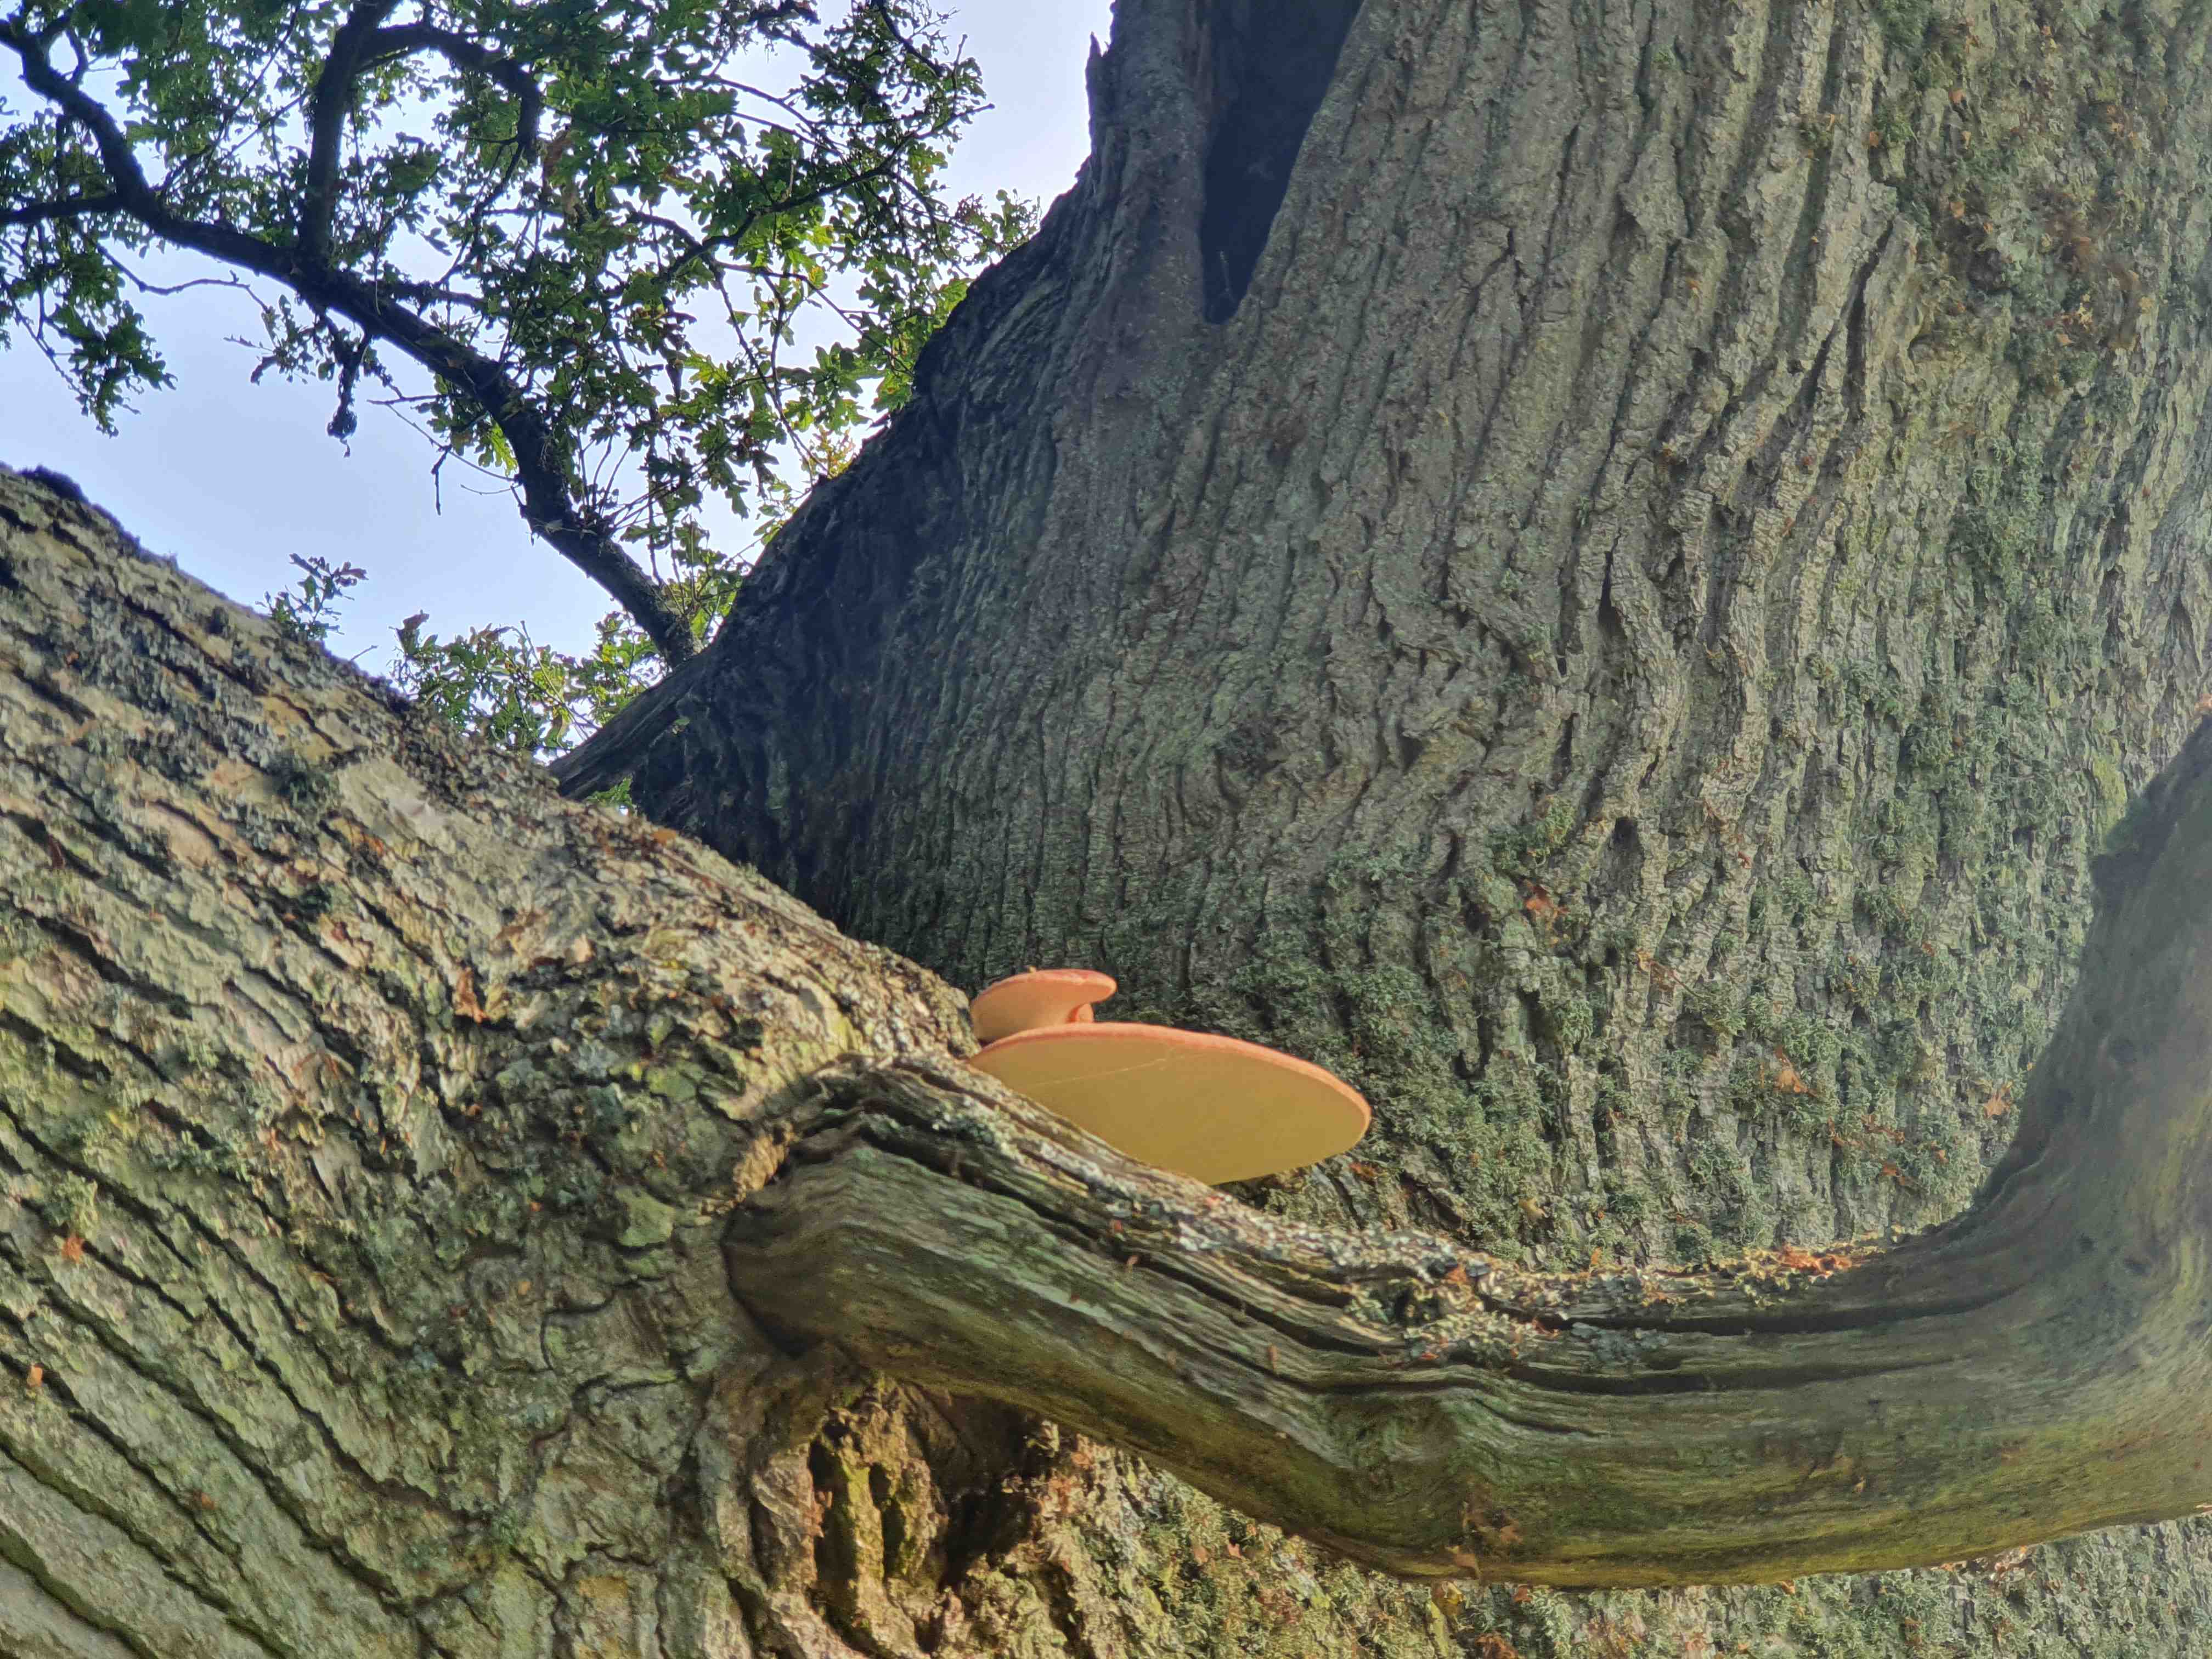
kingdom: Fungi
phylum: Basidiomycota
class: Agaricomycetes
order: Agaricales
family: Fistulinaceae
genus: Fistulina
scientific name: Fistulina hepatica
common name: oksetunge
